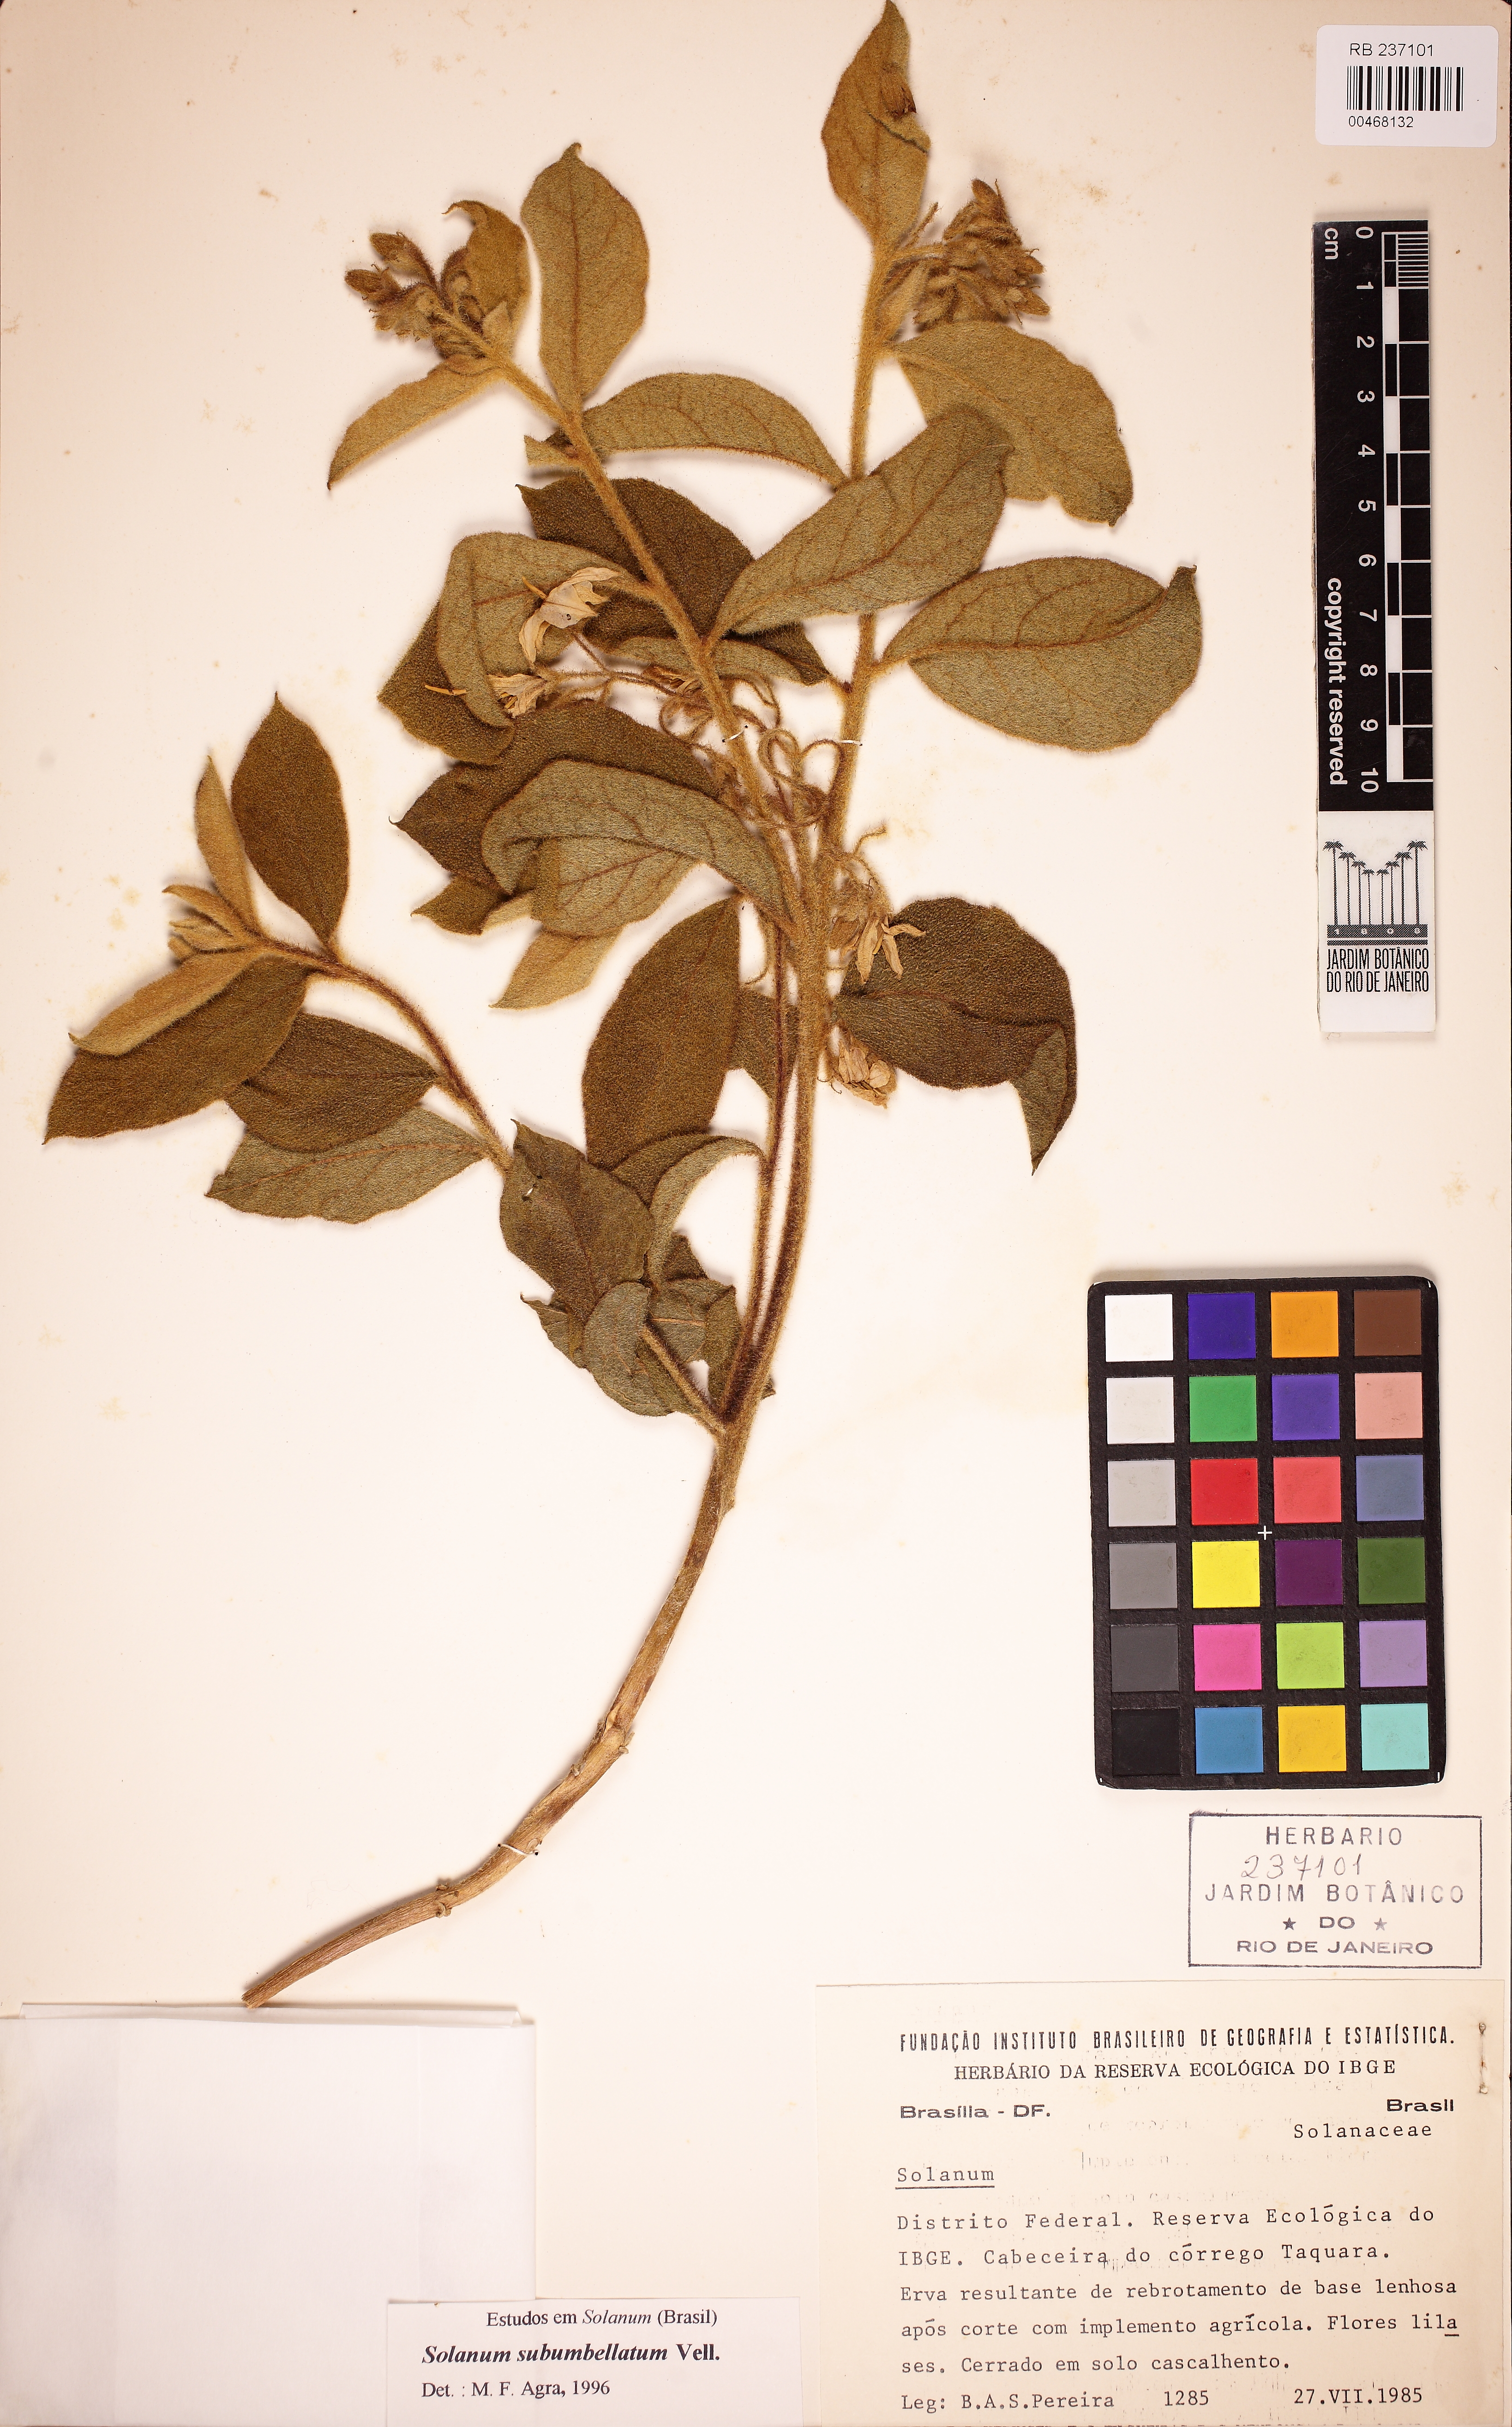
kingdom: Plantae
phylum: Tracheophyta
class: Magnoliopsida
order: Solanales
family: Solanaceae
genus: Solanum
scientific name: Solanum subumbellatum
